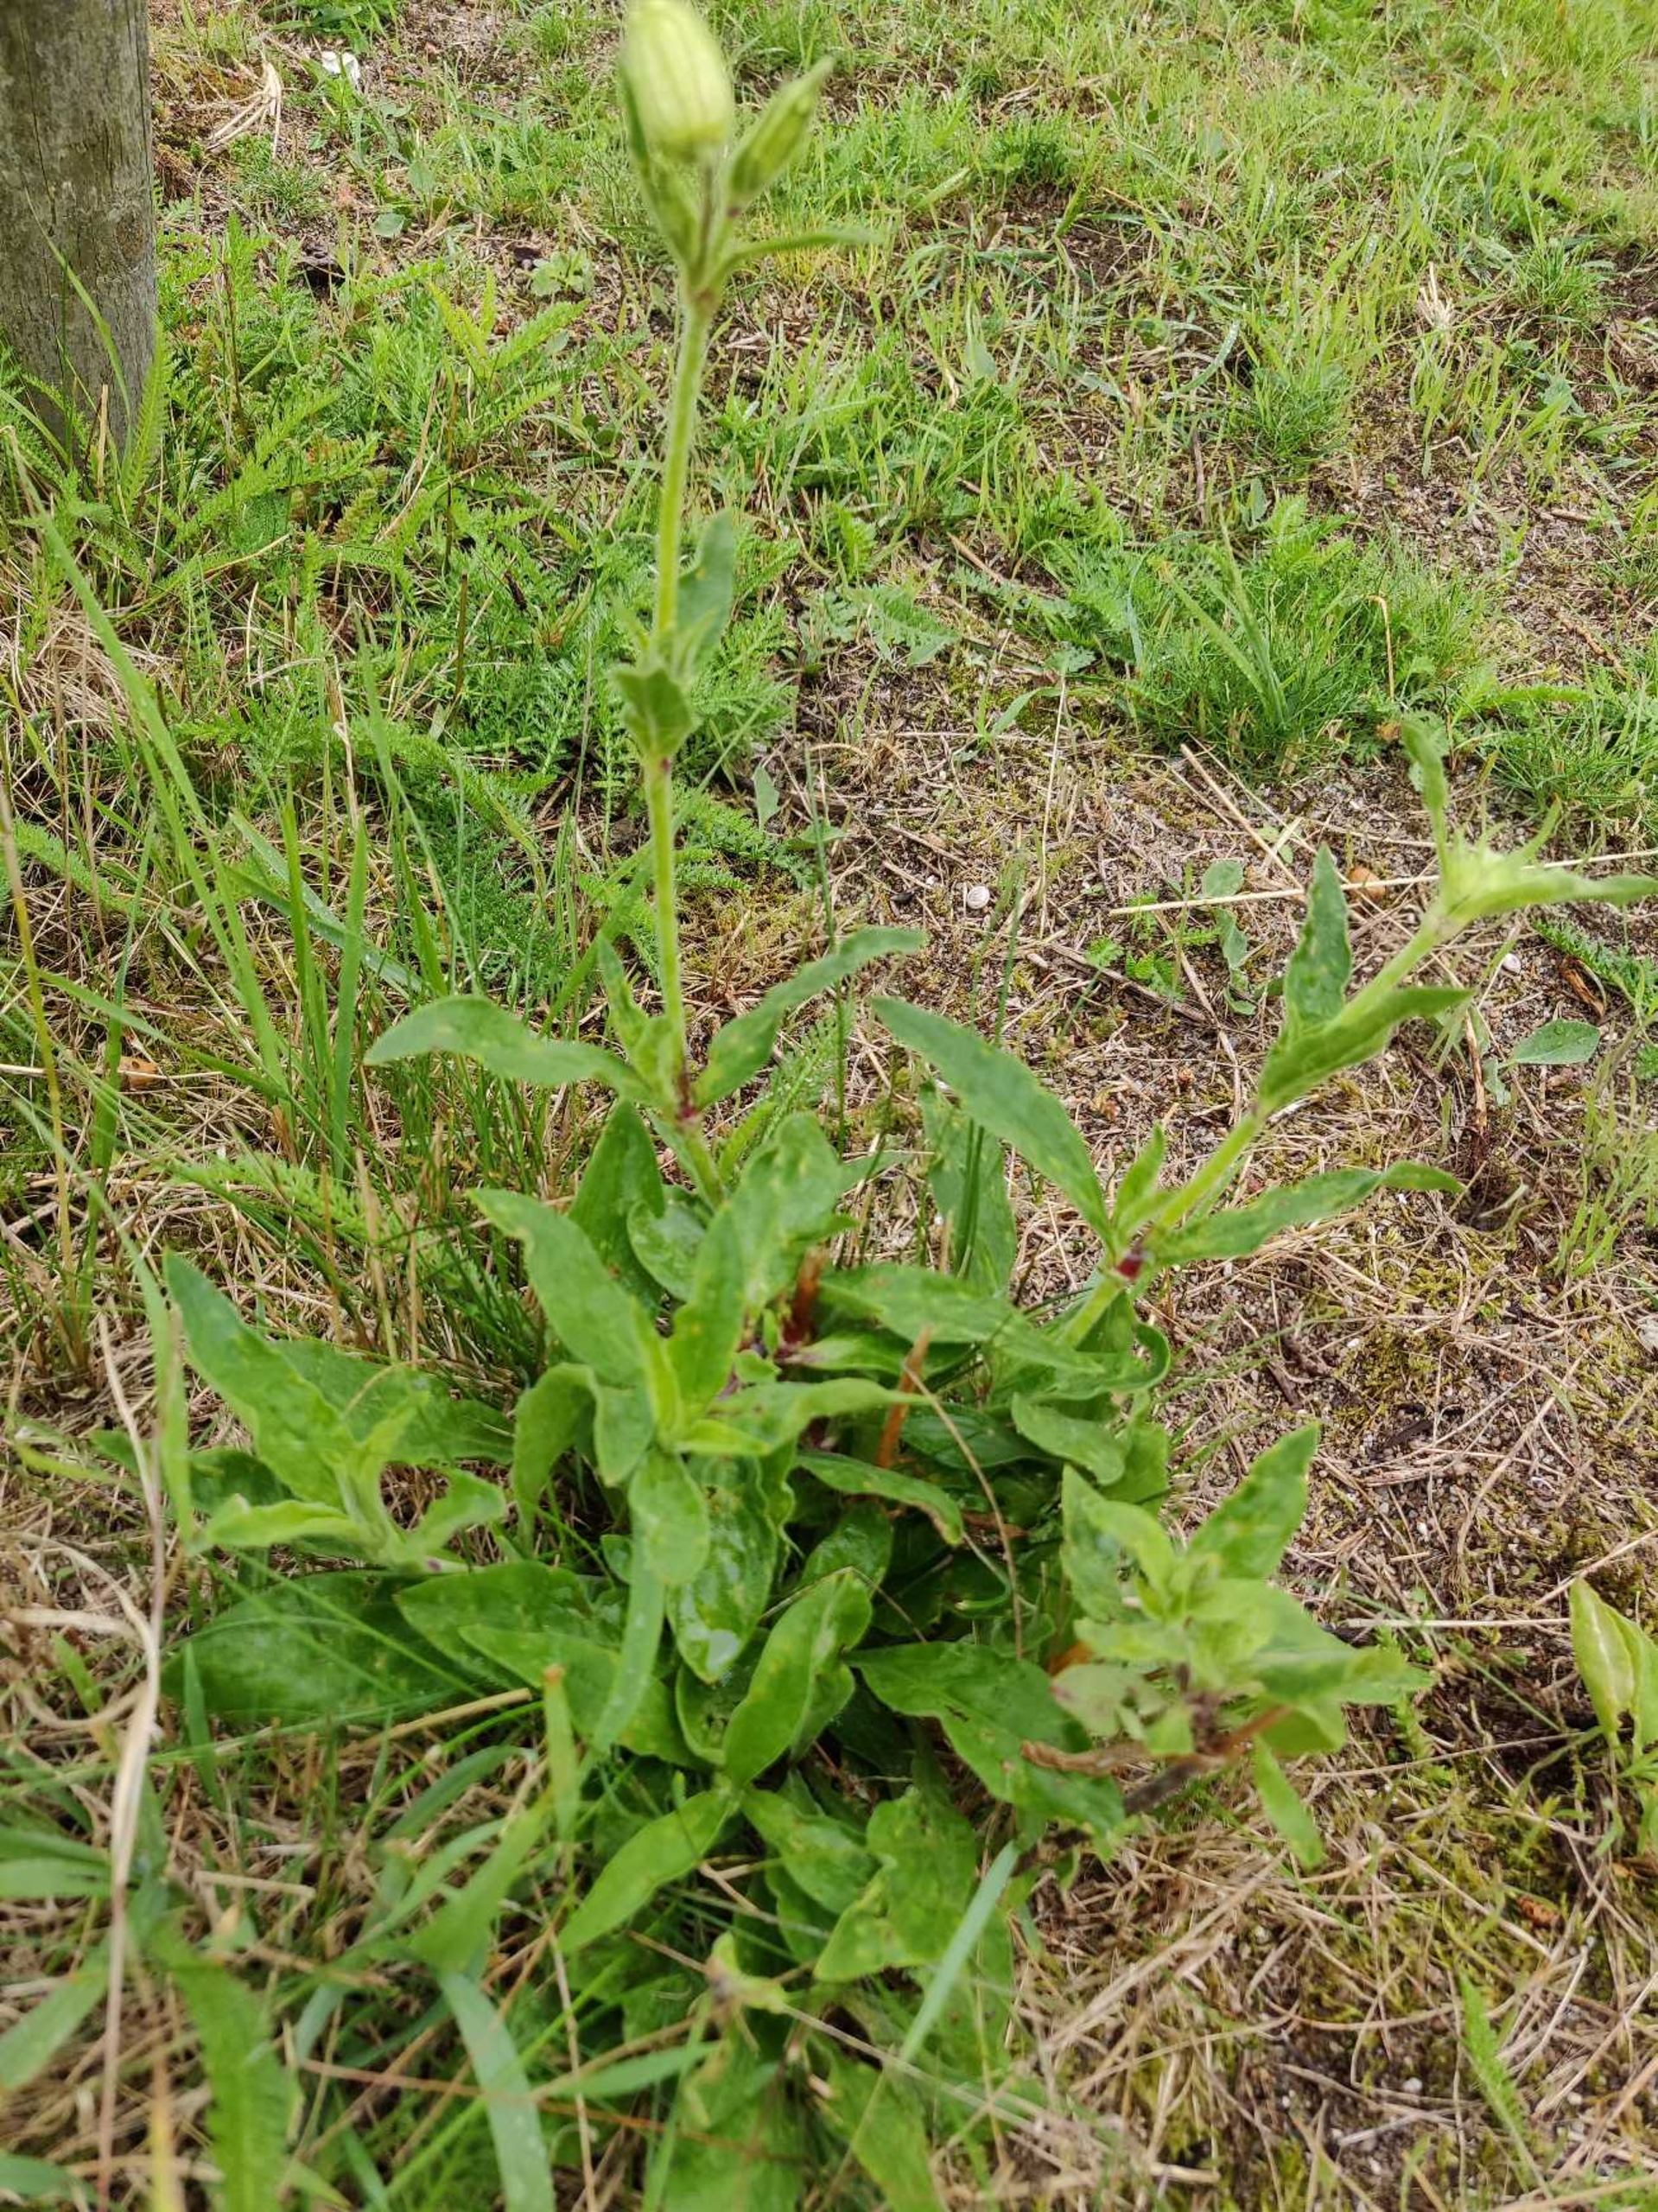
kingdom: Plantae
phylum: Tracheophyta
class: Magnoliopsida
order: Caryophyllales
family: Caryophyllaceae
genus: Silene
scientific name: Silene latifolia
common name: Aftenpragtstjerne
